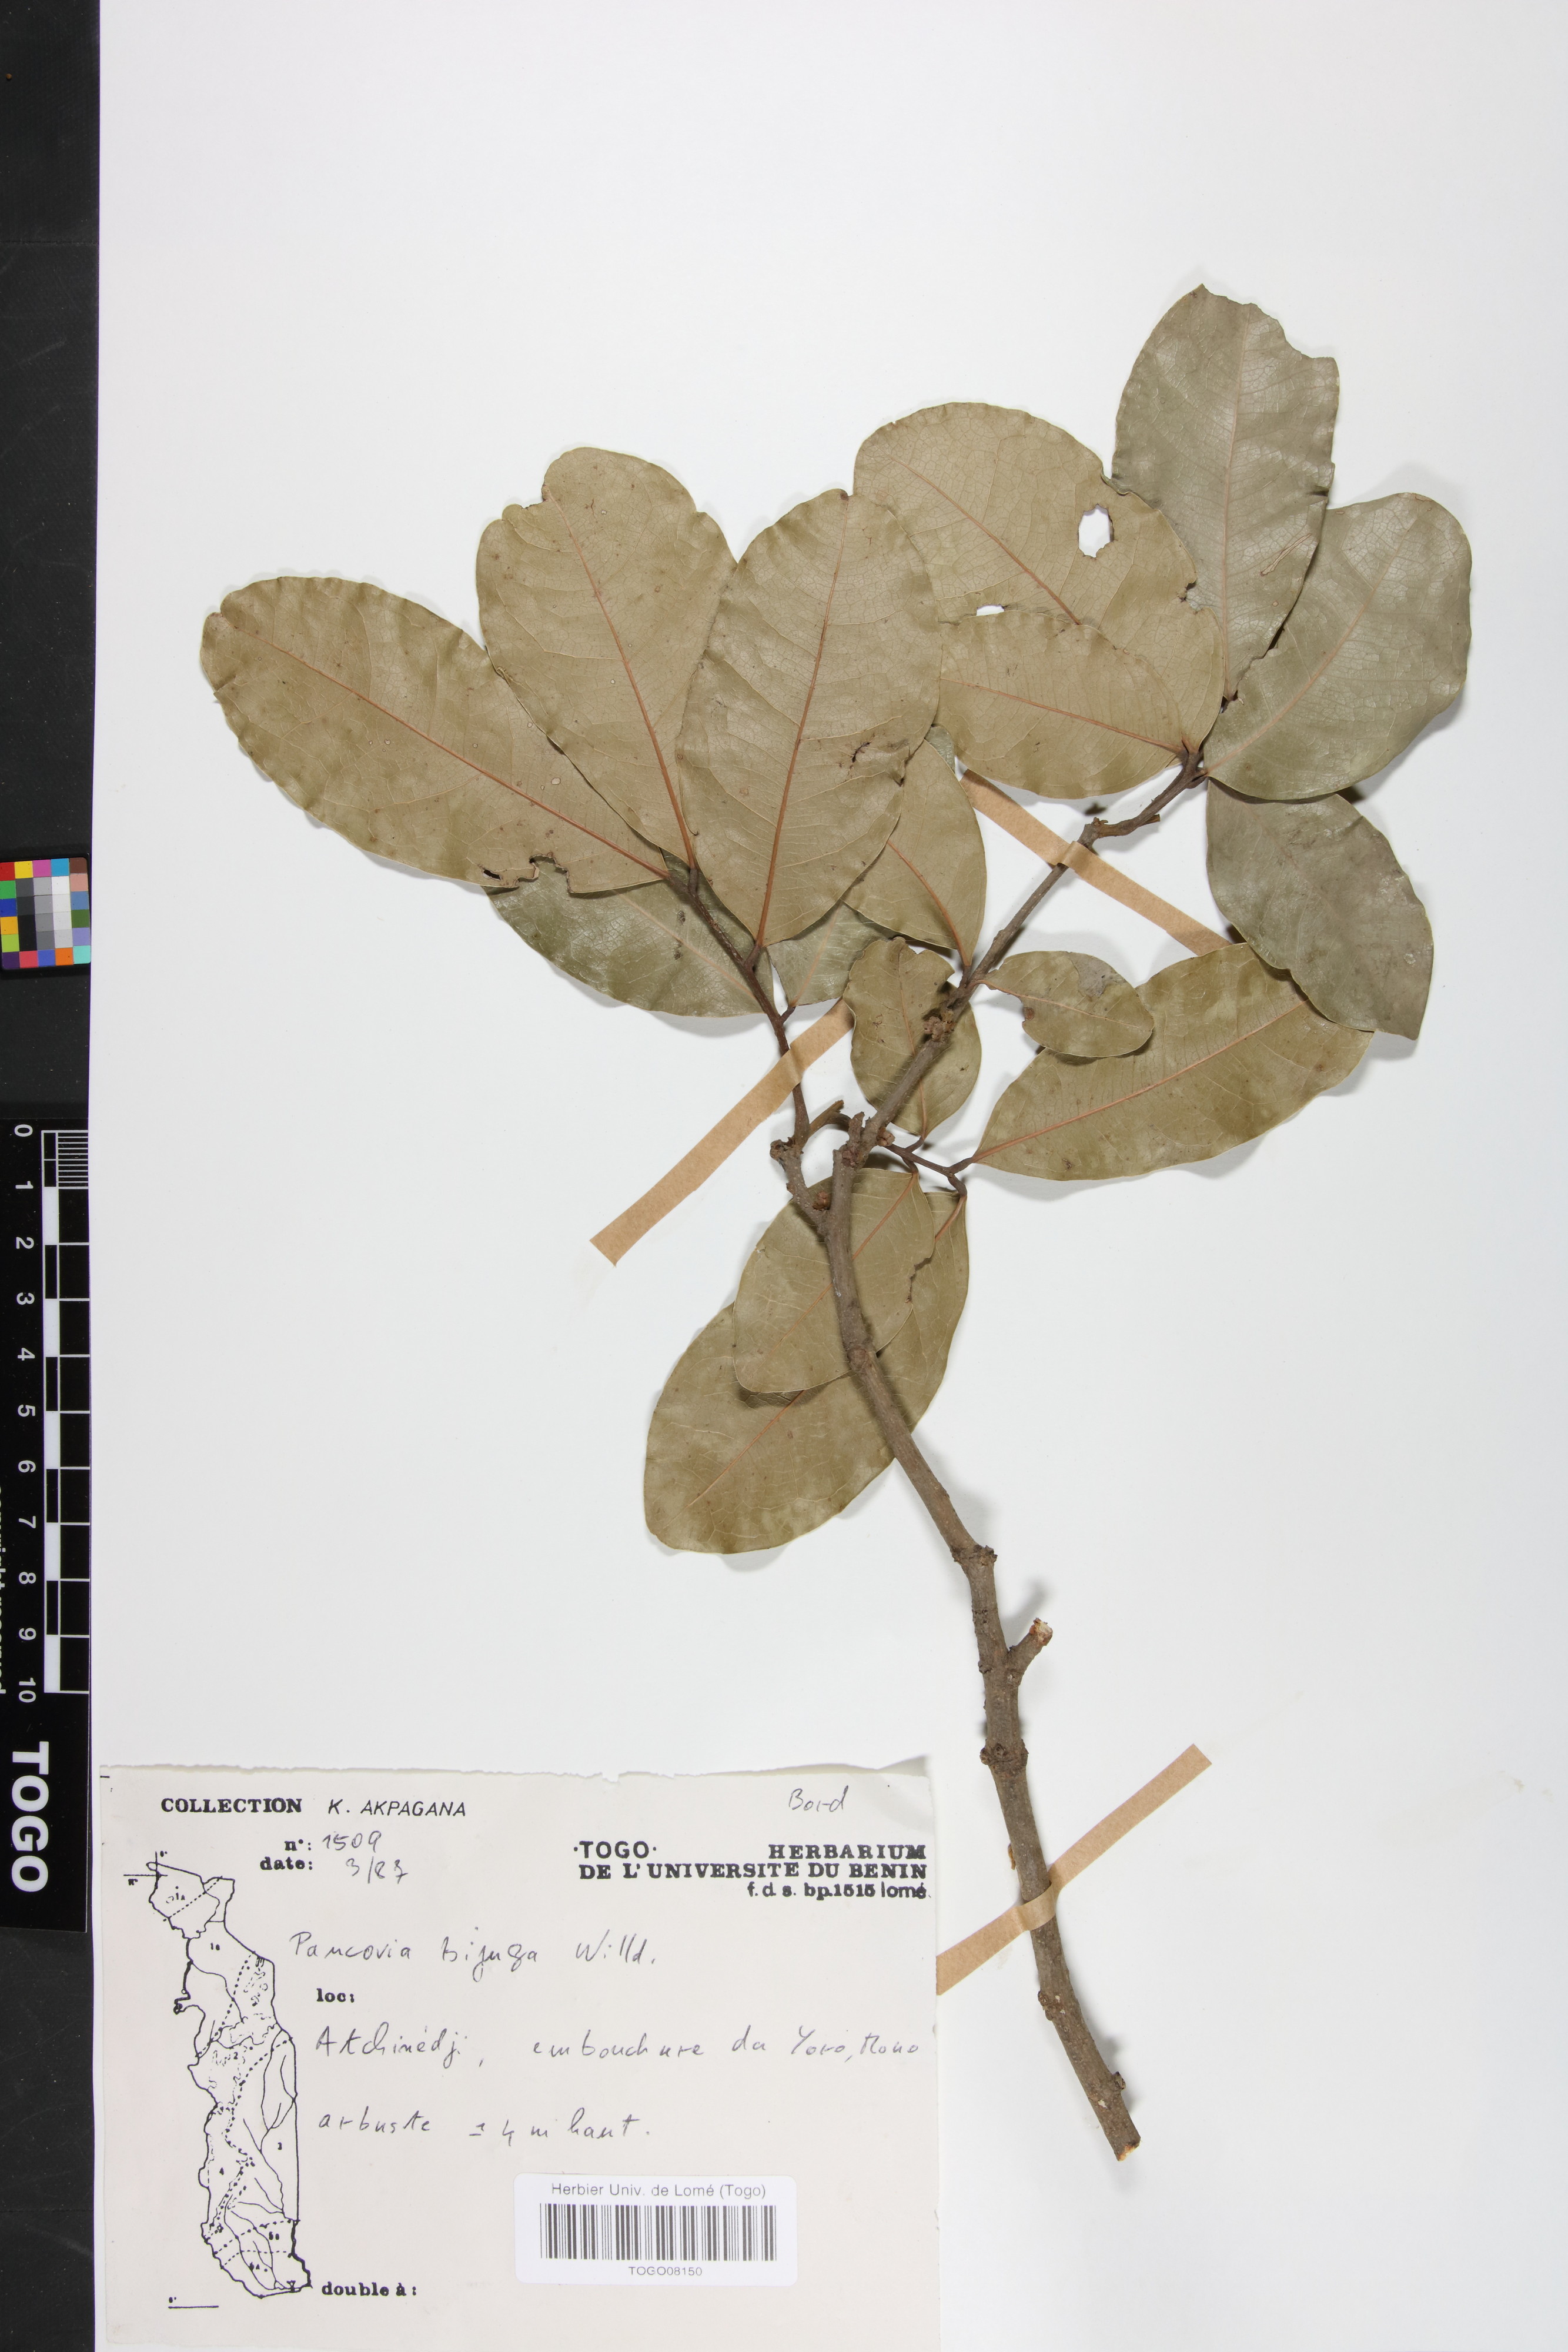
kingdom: Plantae
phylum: Tracheophyta
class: Magnoliopsida
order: Sapindales
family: Sapindaceae
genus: Pancovia
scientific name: Pancovia bijuga
